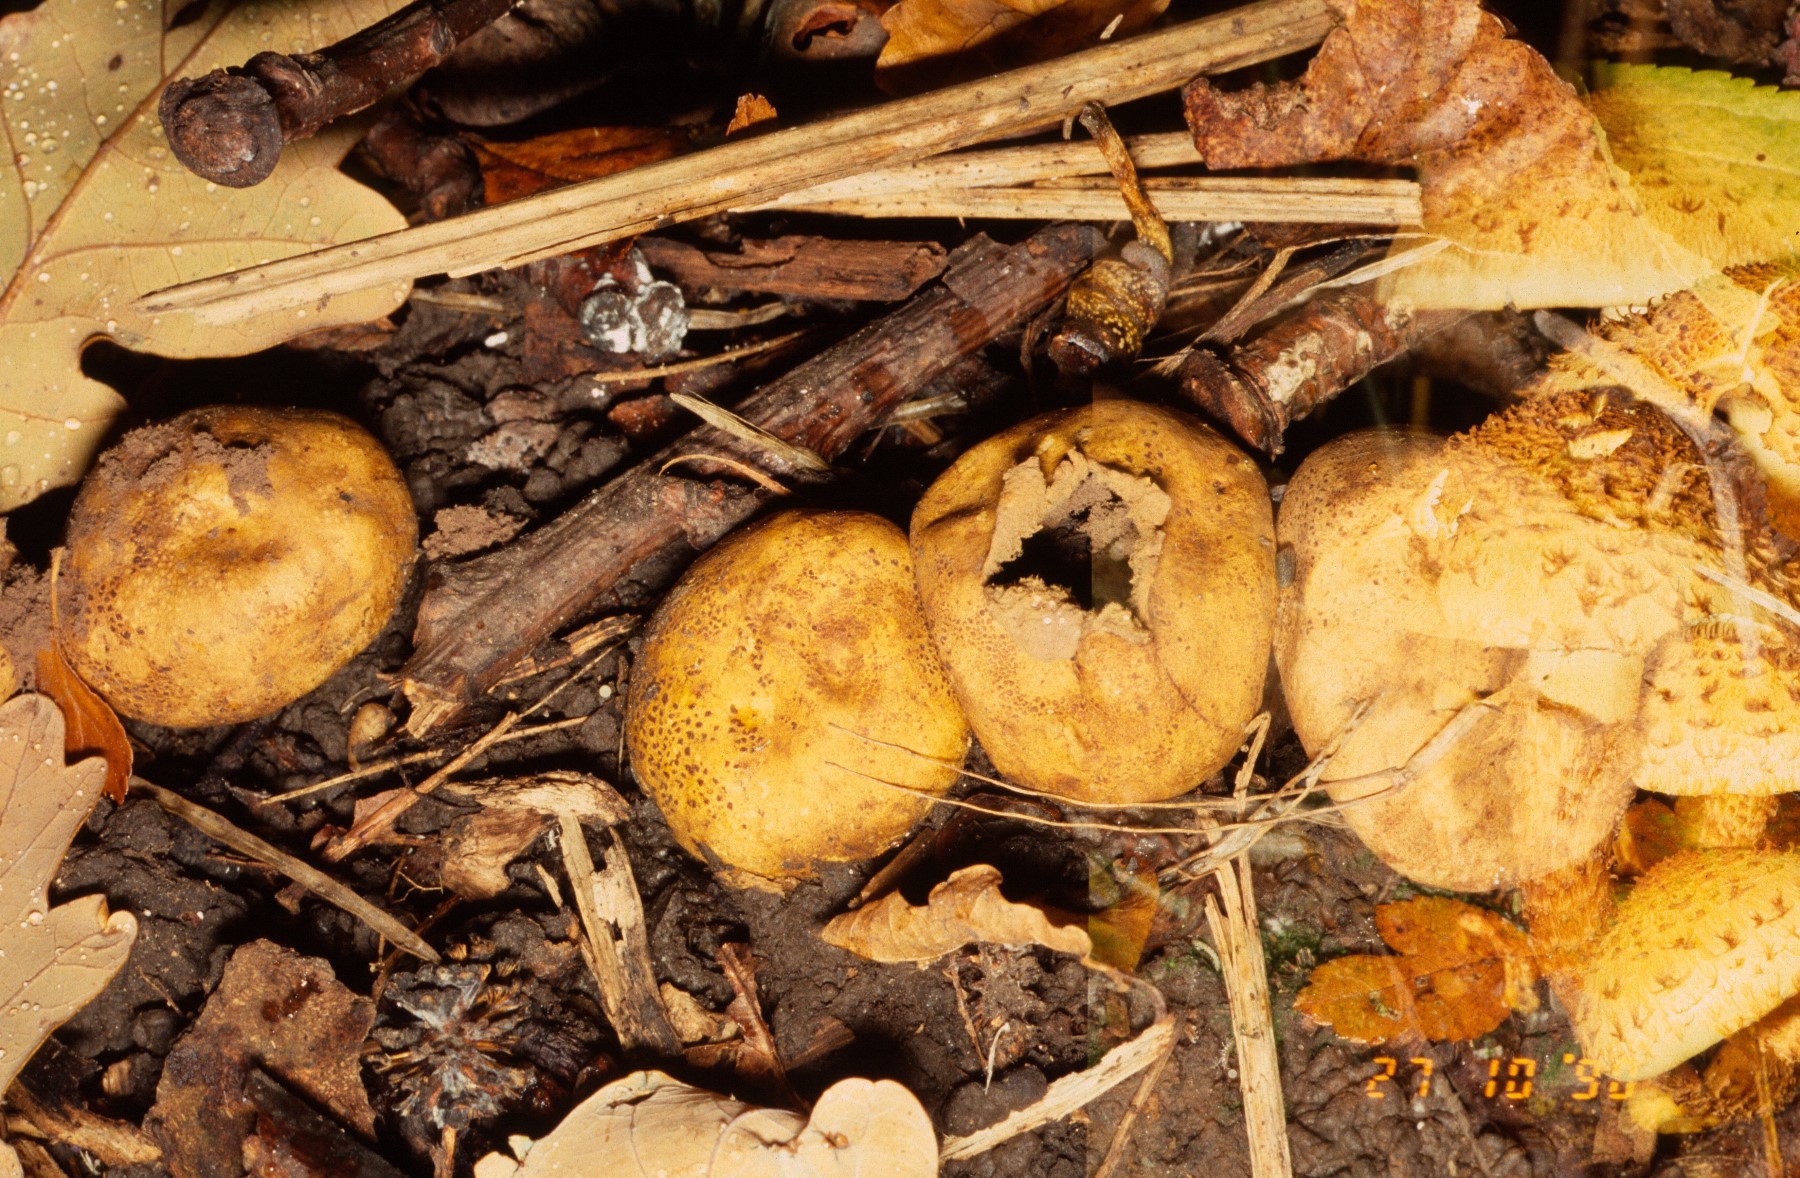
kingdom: Fungi
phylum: Basidiomycota
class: Agaricomycetes
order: Boletales
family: Sclerodermataceae
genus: Scleroderma
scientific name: Scleroderma areolatum
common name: plettet bruskbold
